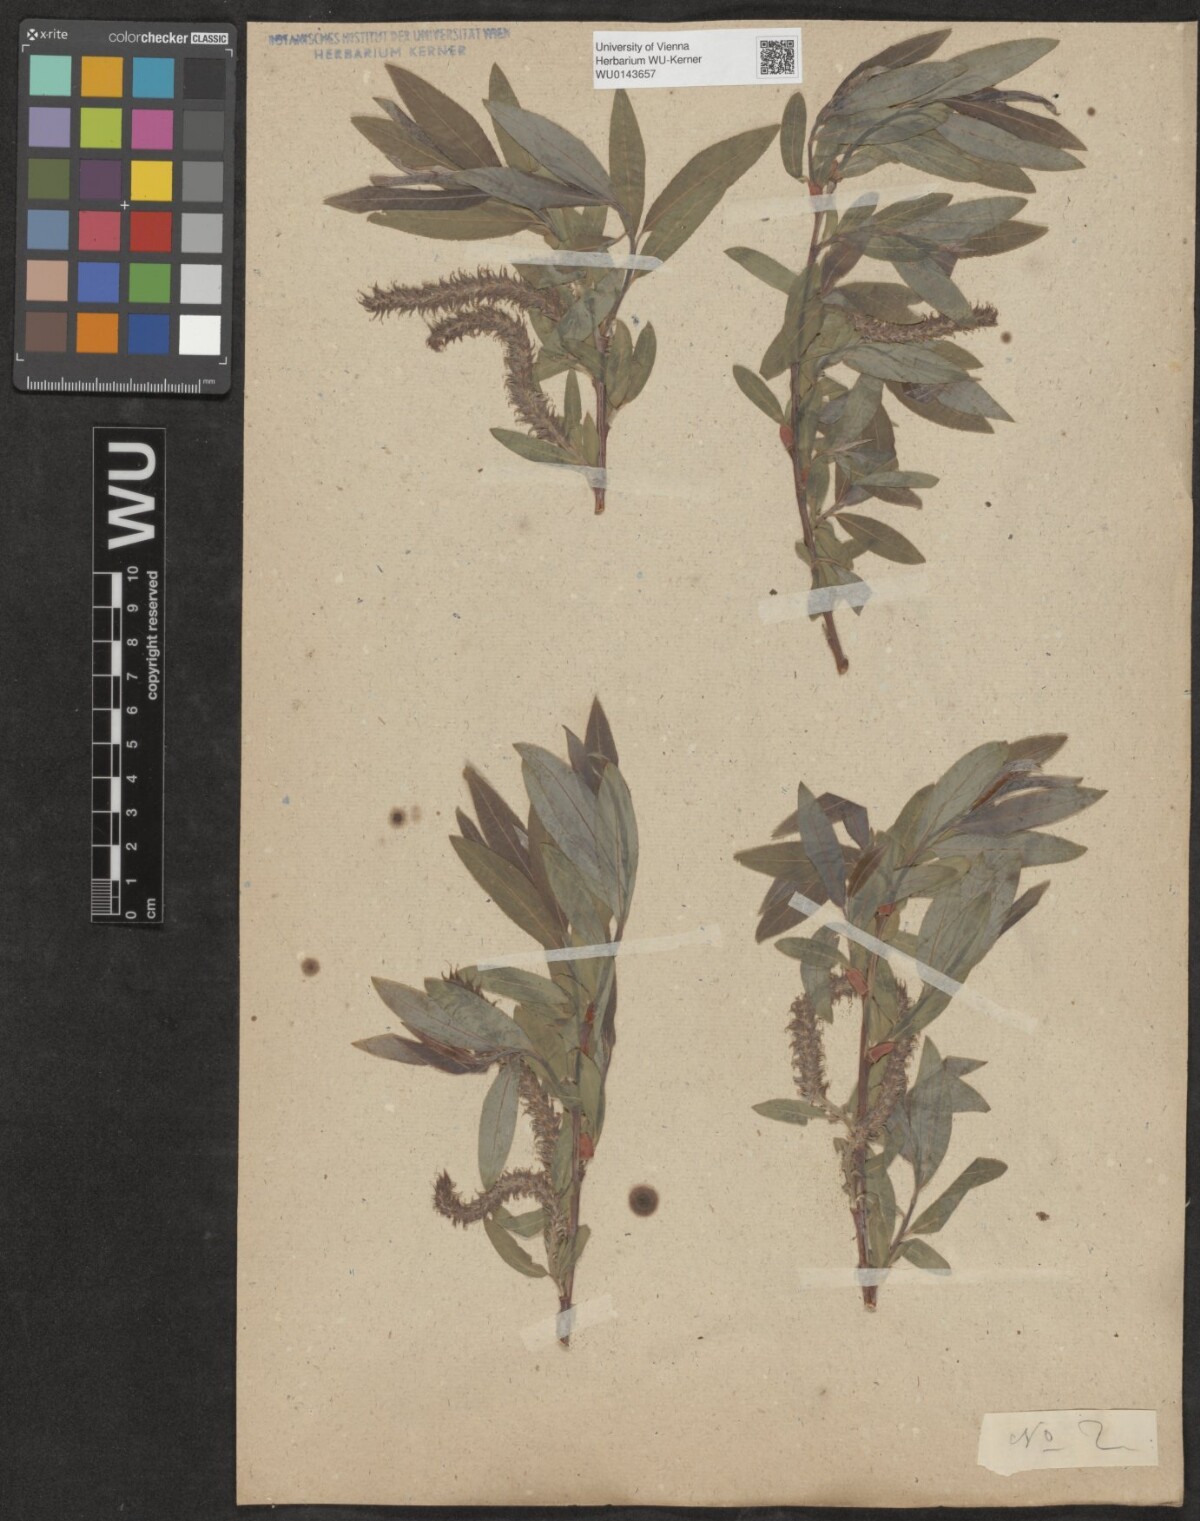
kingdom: Plantae
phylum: Tracheophyta
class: Magnoliopsida
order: Malpighiales
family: Salicaceae
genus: Salix
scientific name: Salix
